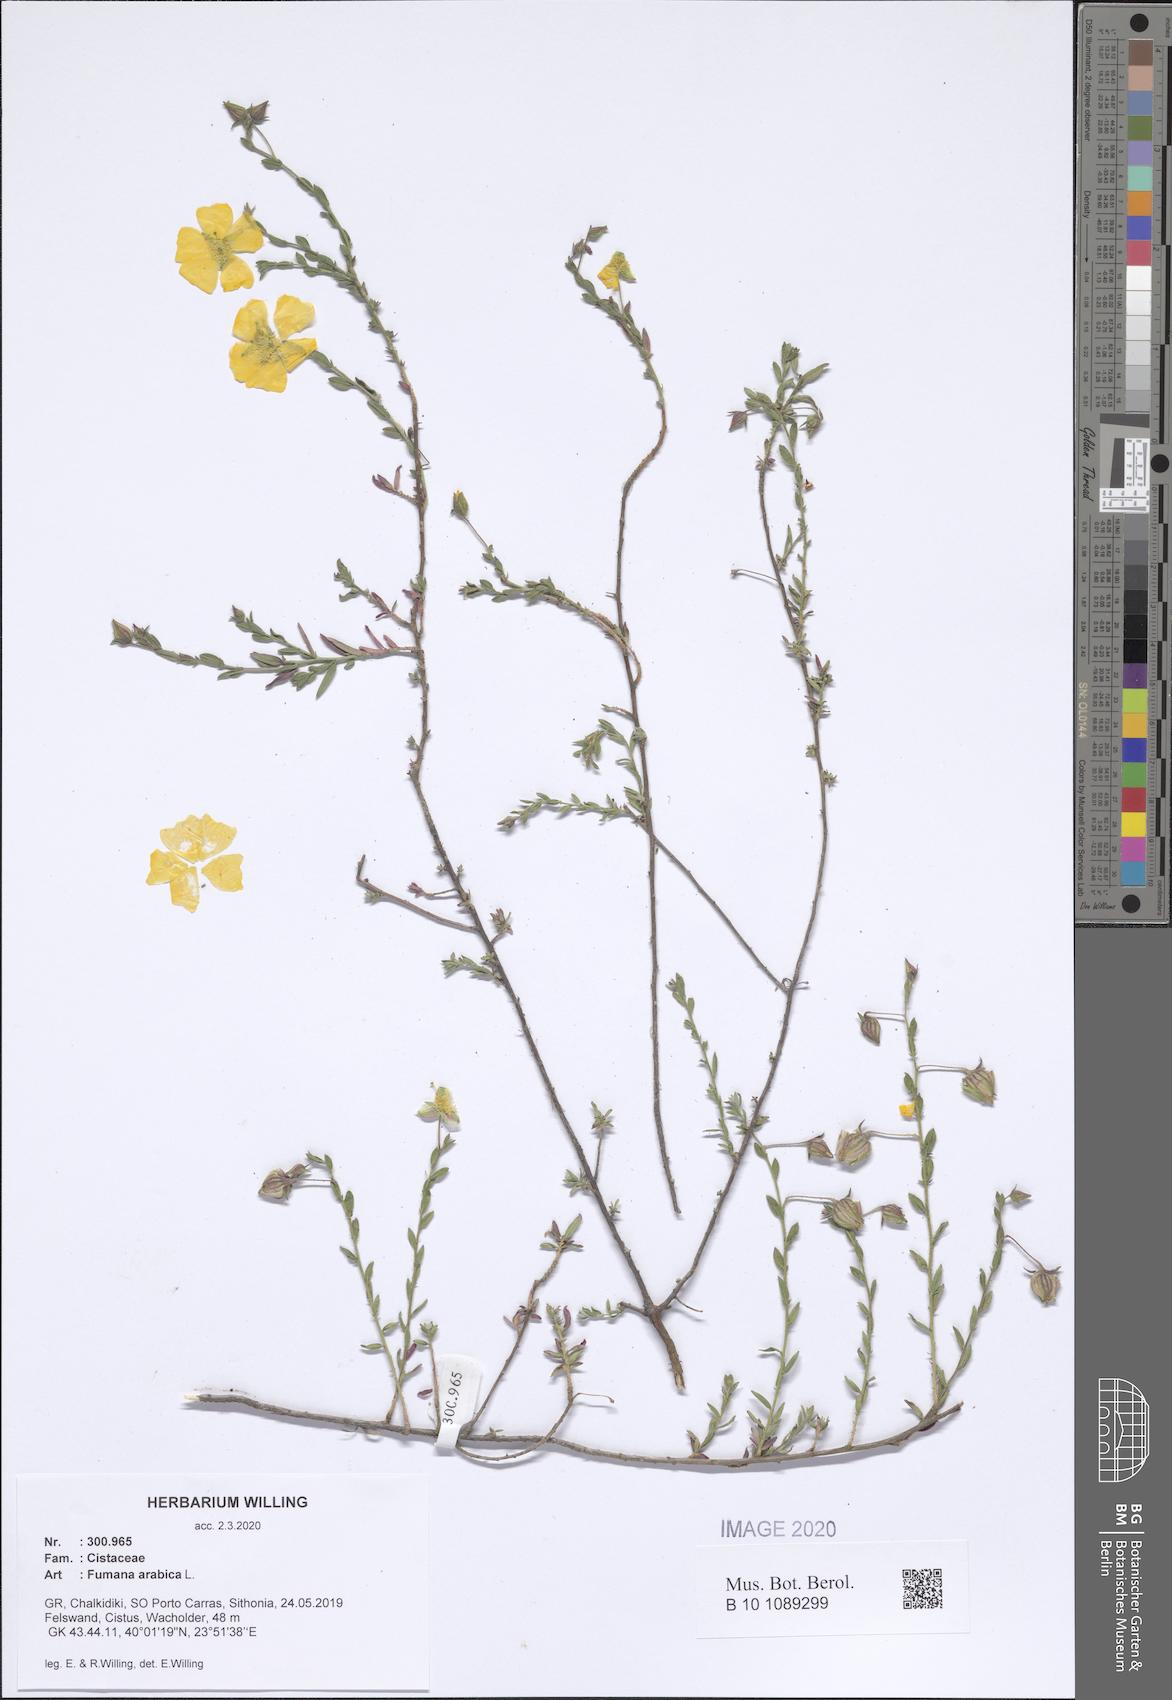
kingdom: Plantae
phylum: Tracheophyta
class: Magnoliopsida
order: Malvales
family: Cistaceae
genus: Fumana
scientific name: Fumana arabica
